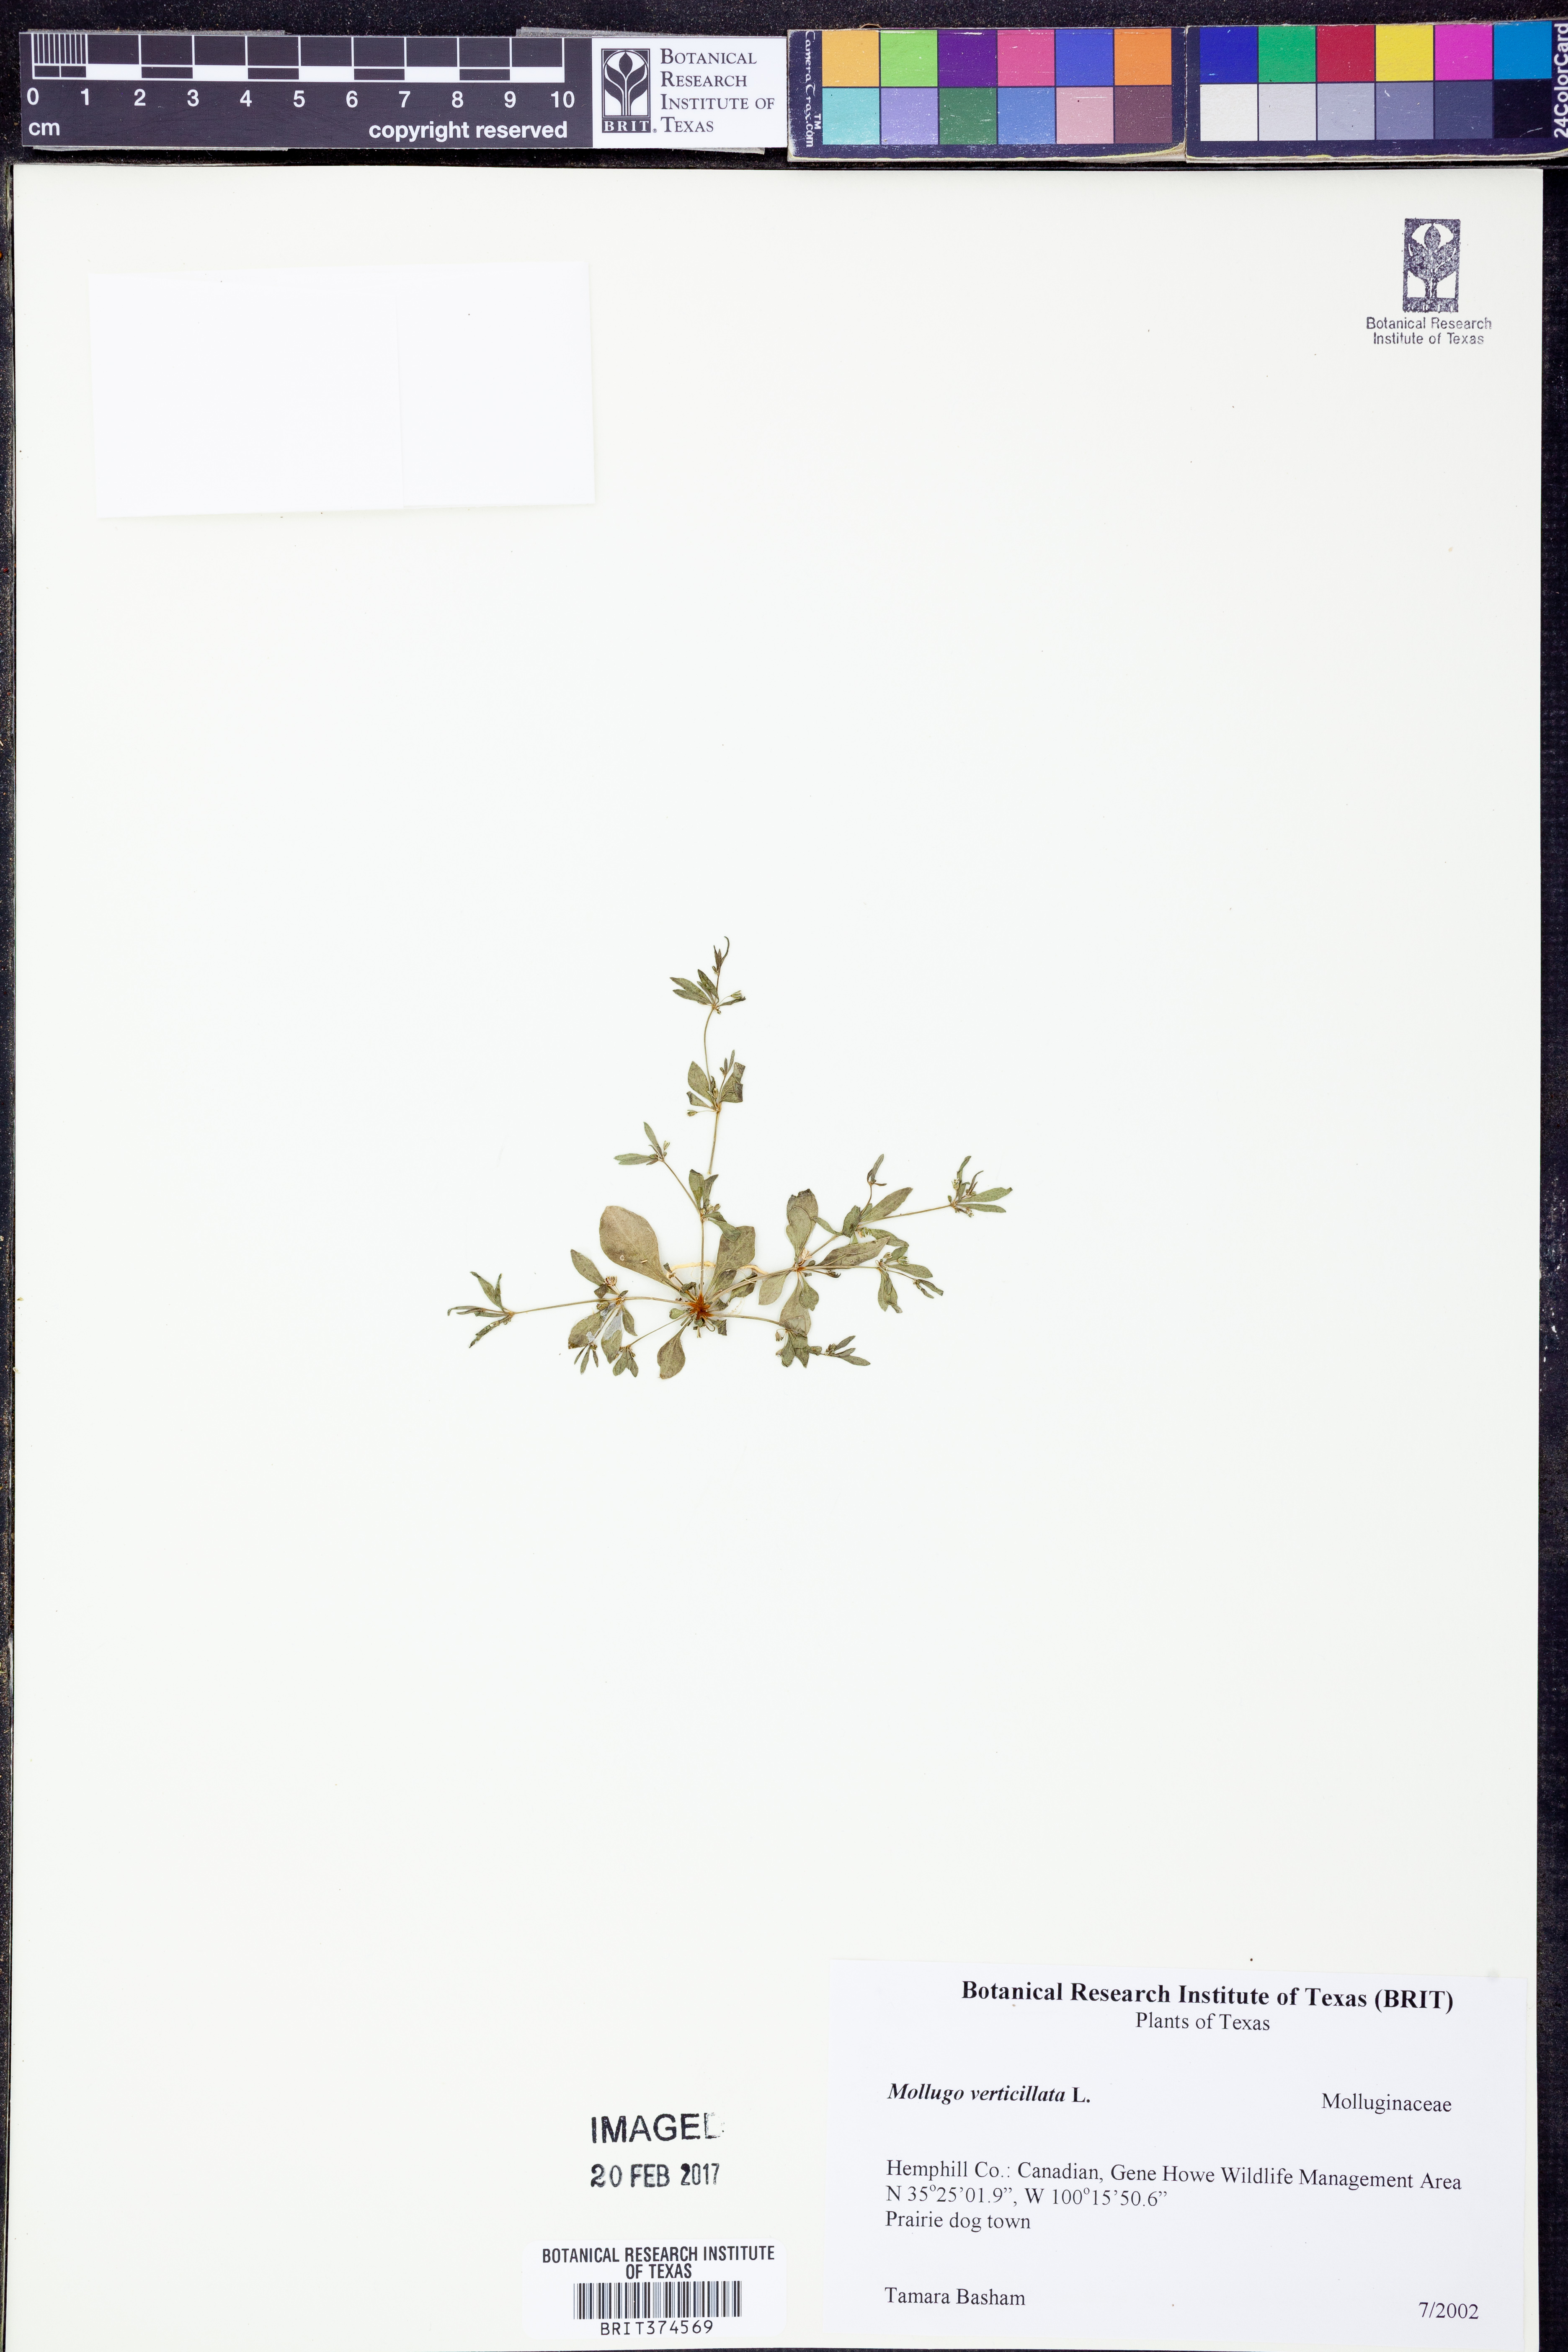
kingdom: Plantae
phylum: Tracheophyta
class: Magnoliopsida
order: Caryophyllales
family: Molluginaceae
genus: Mollugo
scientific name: Mollugo verticillata
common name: Green carpetweed
